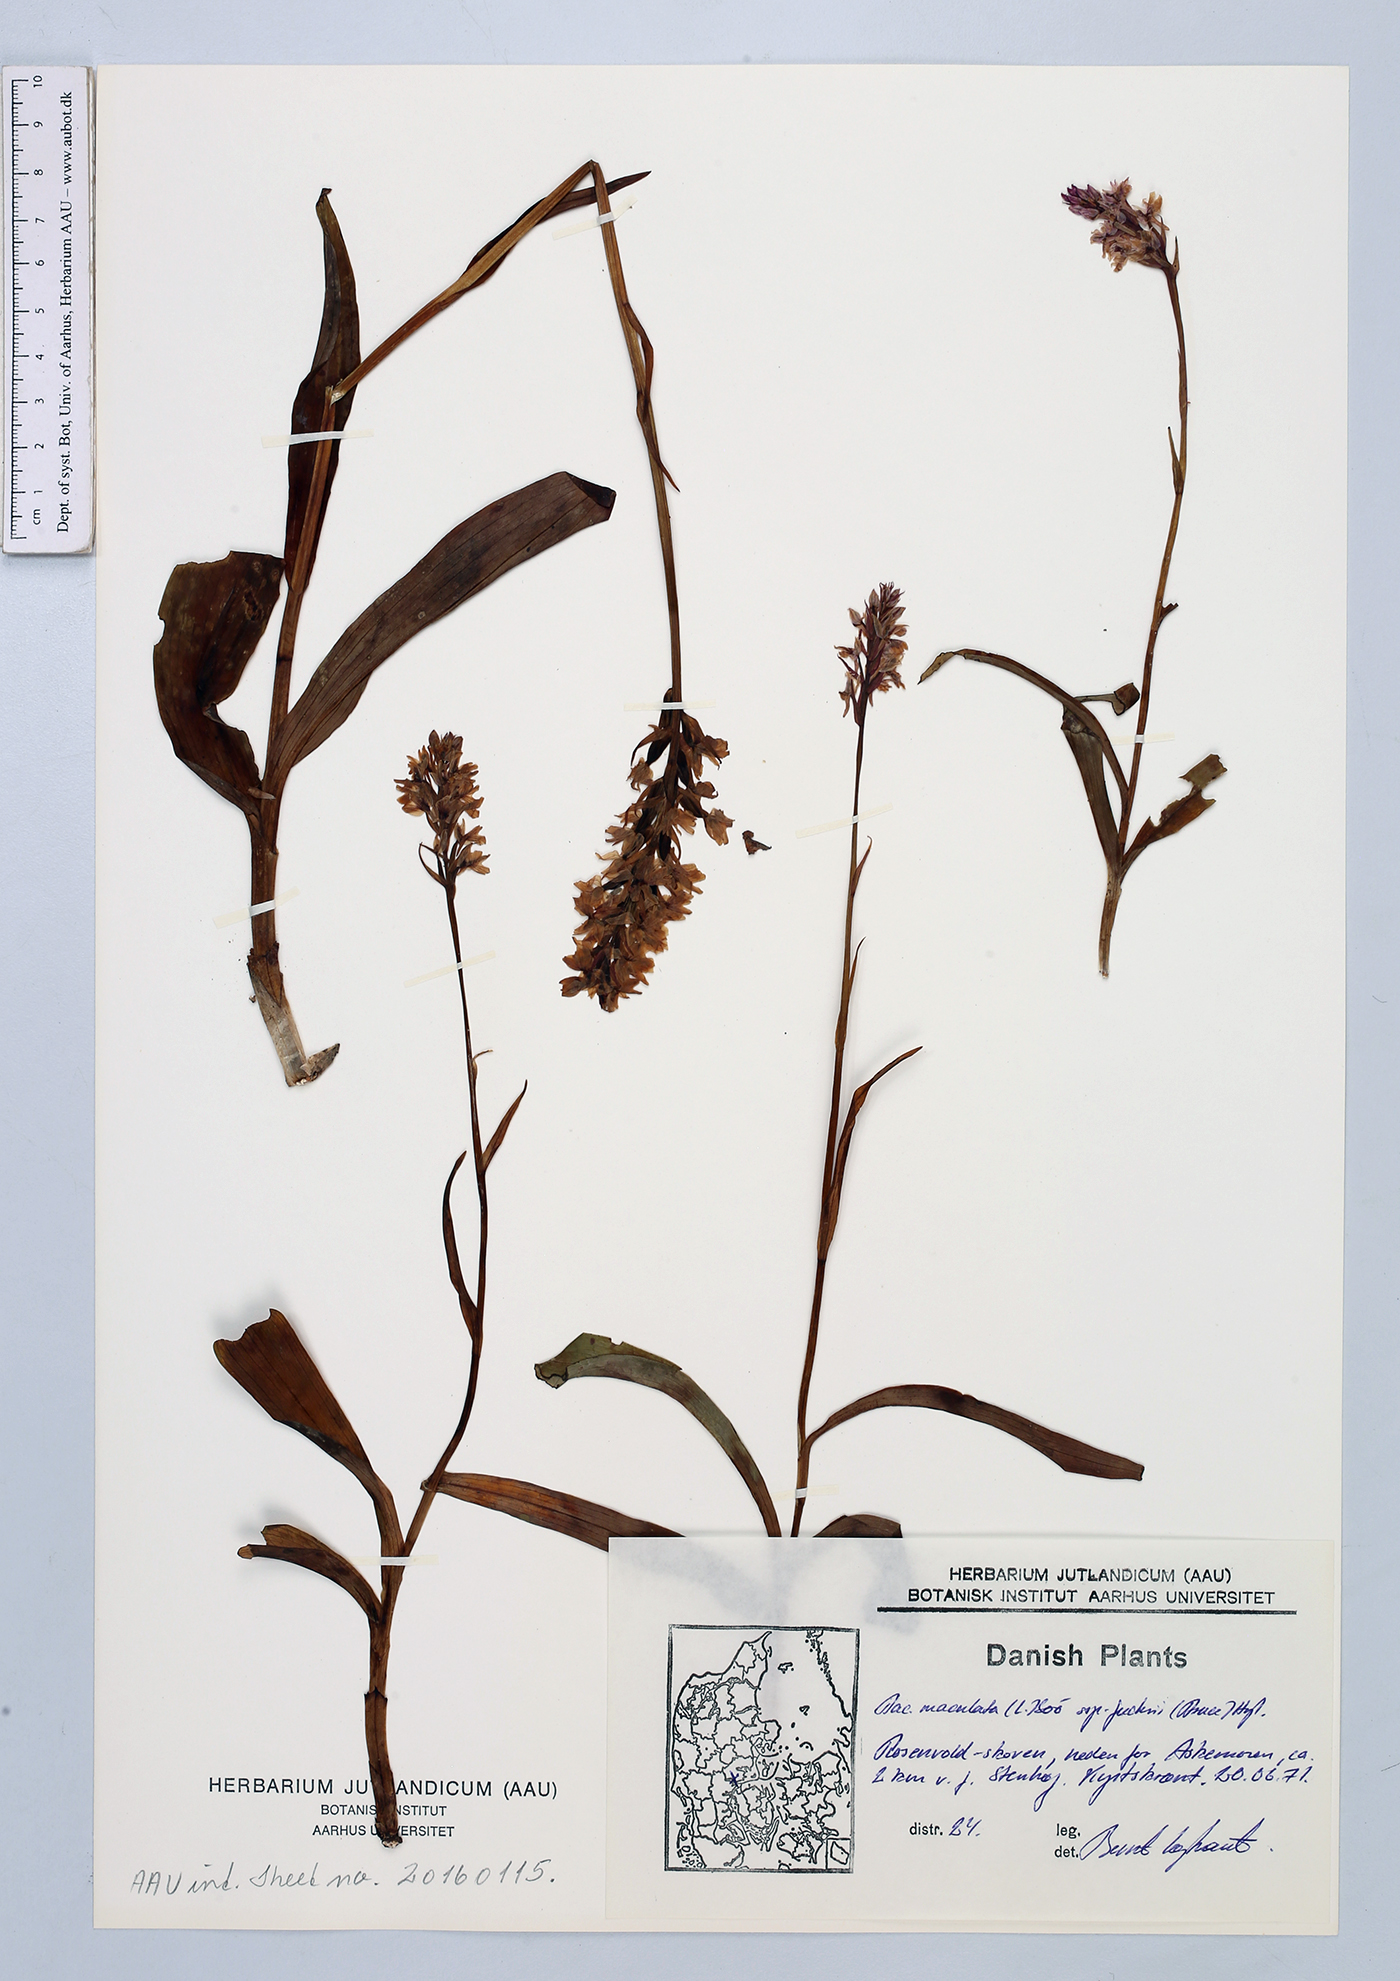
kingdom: Plantae
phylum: Tracheophyta
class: Liliopsida
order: Asparagales
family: Orchidaceae
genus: Dactylorhiza
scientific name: Dactylorhiza maculata
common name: Heath spotted-orchid
